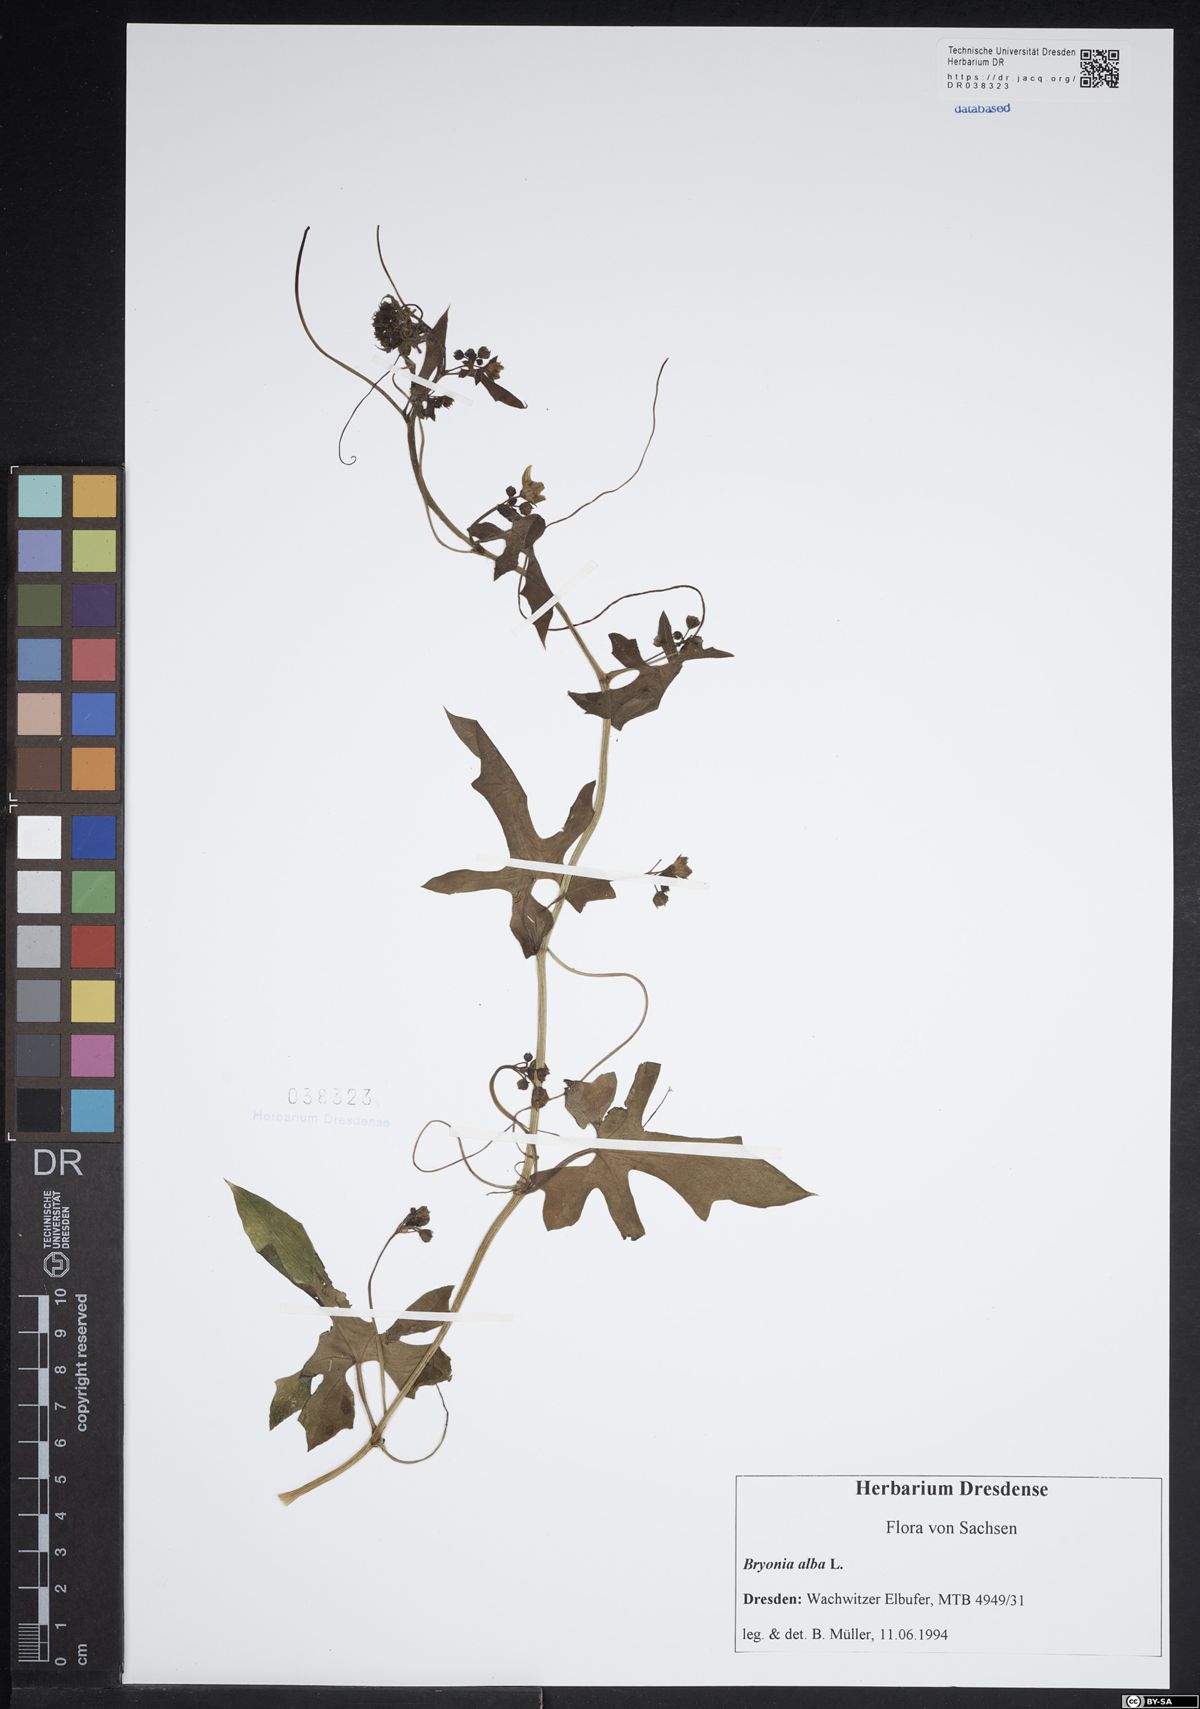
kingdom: Plantae
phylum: Tracheophyta
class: Magnoliopsida
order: Cucurbitales
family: Cucurbitaceae
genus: Bryonia
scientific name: Bryonia alba
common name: White bryony
